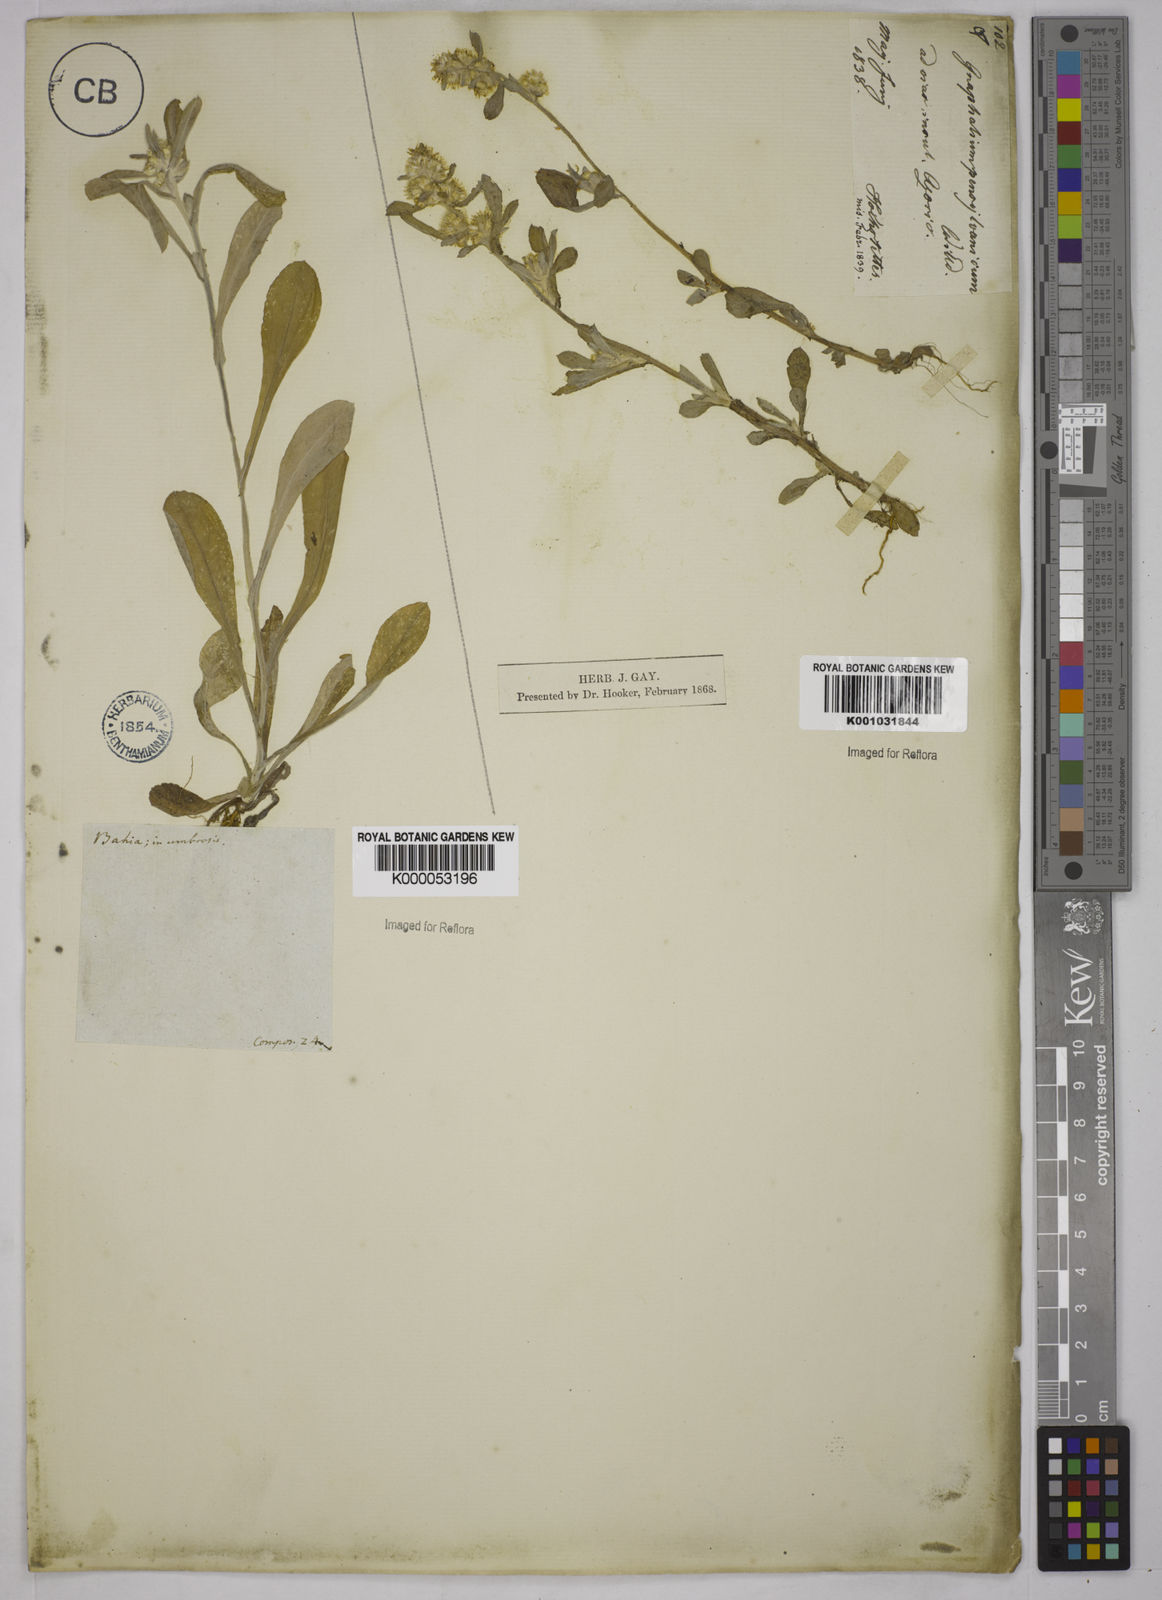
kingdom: Plantae
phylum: Tracheophyta
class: Magnoliopsida
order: Asterales
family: Asteraceae
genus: Gamochaeta
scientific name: Gamochaeta pensylvanica
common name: Pennsylvania everlasting
